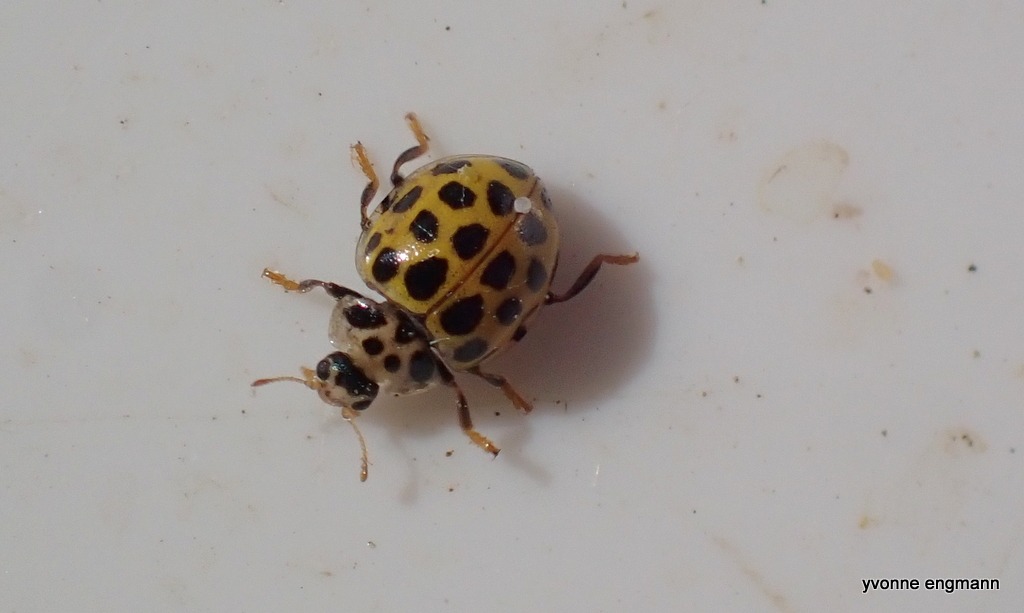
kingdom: Animalia
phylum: Arthropoda
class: Insecta
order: Coleoptera
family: Coccinellidae
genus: Psyllobora
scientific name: Psyllobora vigintiduopunctata
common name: Toogtyveplettet mariehøne
